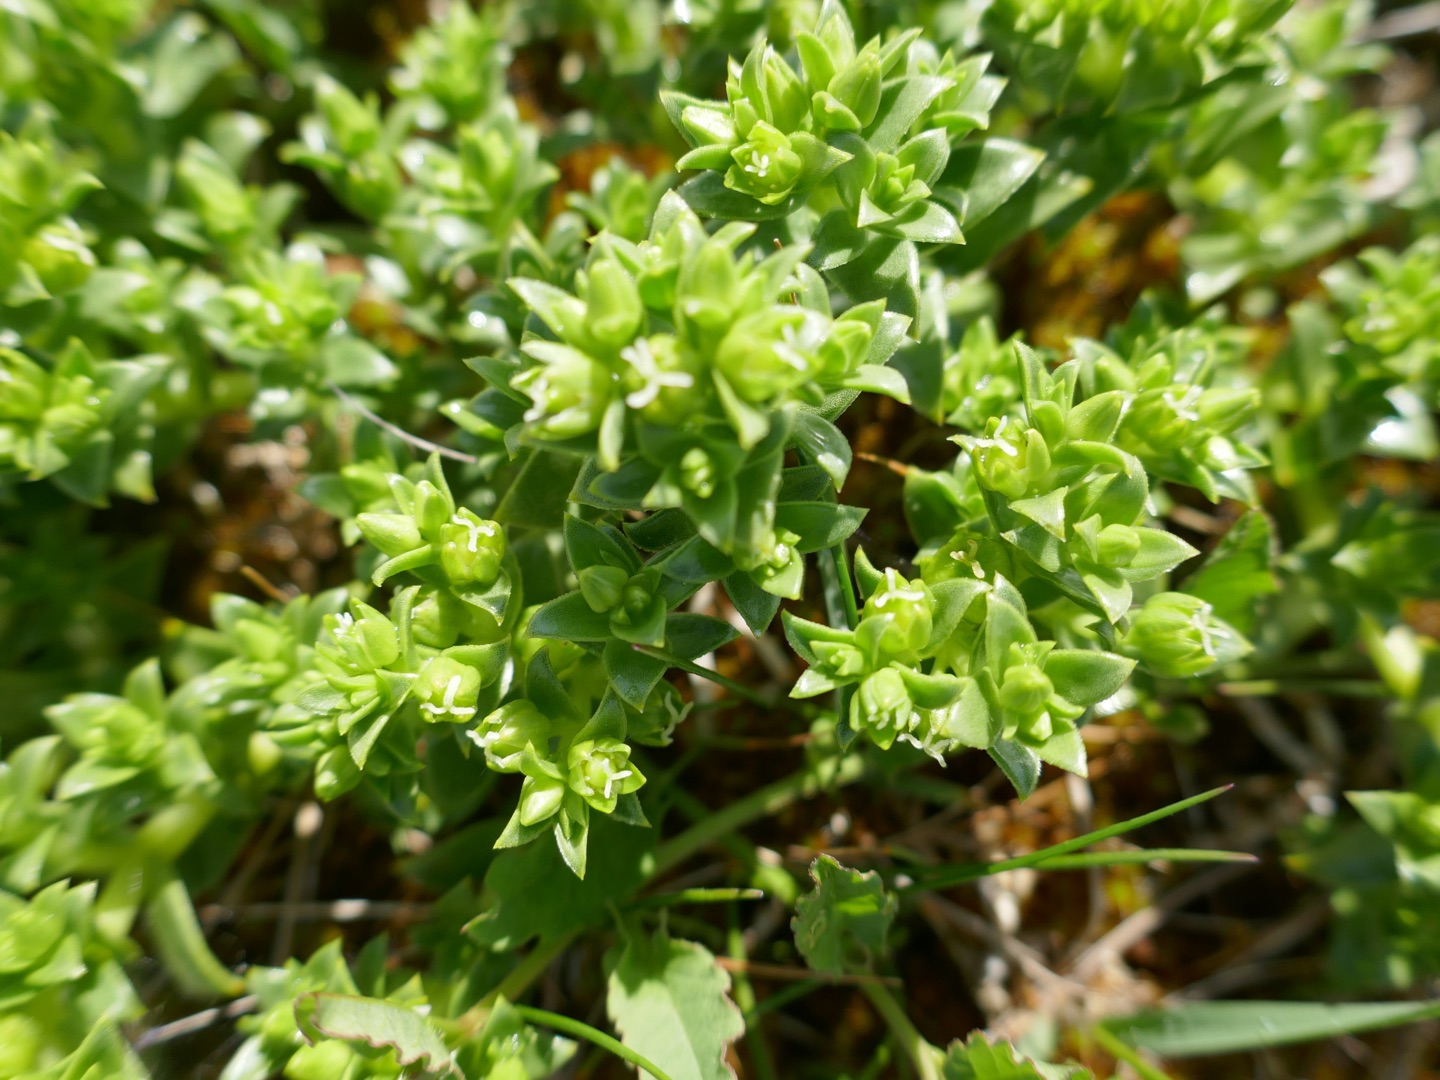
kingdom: Plantae
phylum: Tracheophyta
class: Magnoliopsida
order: Caryophyllales
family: Caryophyllaceae
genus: Honckenya
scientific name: Honckenya peploides
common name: Strandarve
